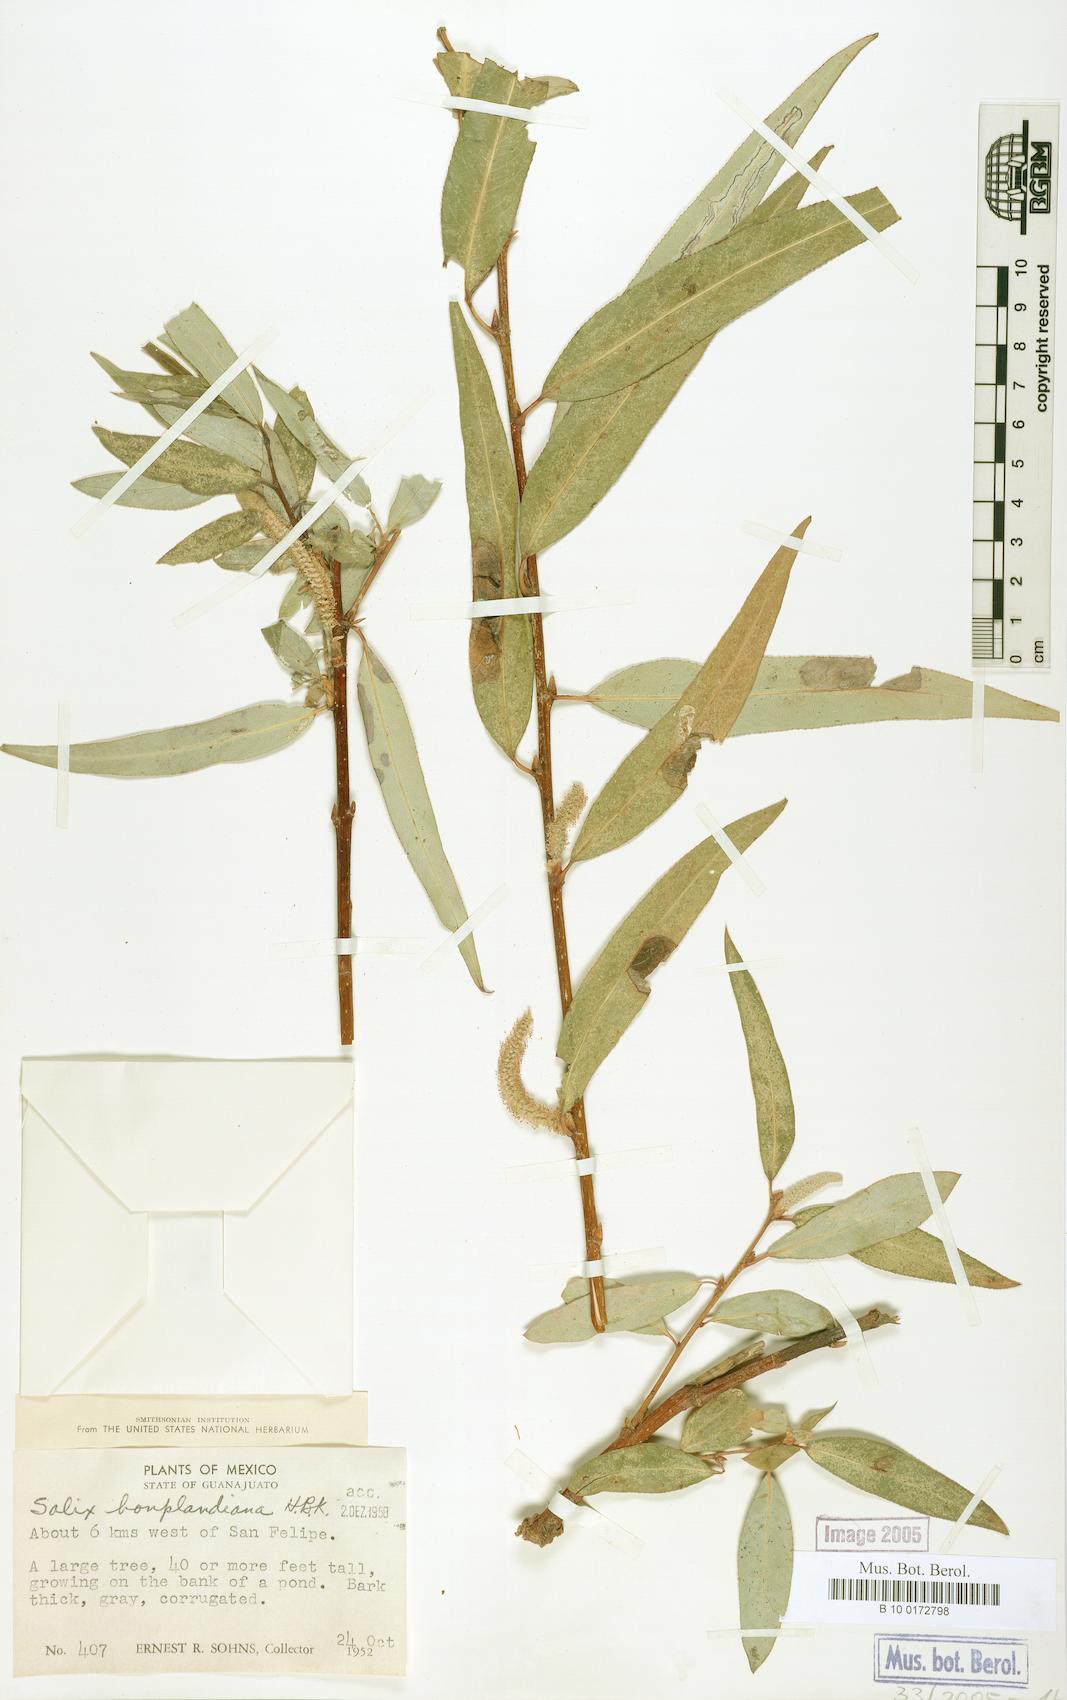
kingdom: Plantae
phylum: Tracheophyta
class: Magnoliopsida
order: Malpighiales
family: Salicaceae
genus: Salix
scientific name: Salix bonplandiana
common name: Bonpland’s willow
